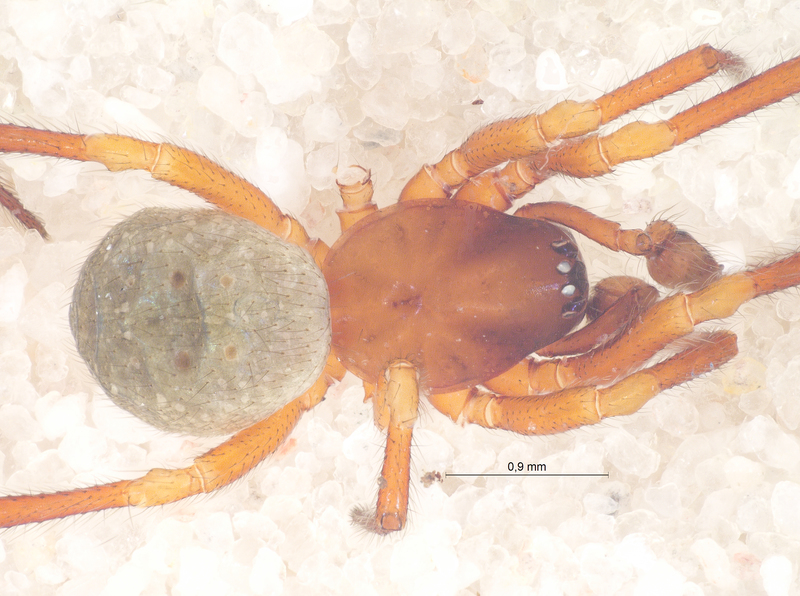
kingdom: Animalia
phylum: Arthropoda
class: Arachnida
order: Araneae
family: Theridiidae
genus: Robertus
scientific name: Robertus lividus
